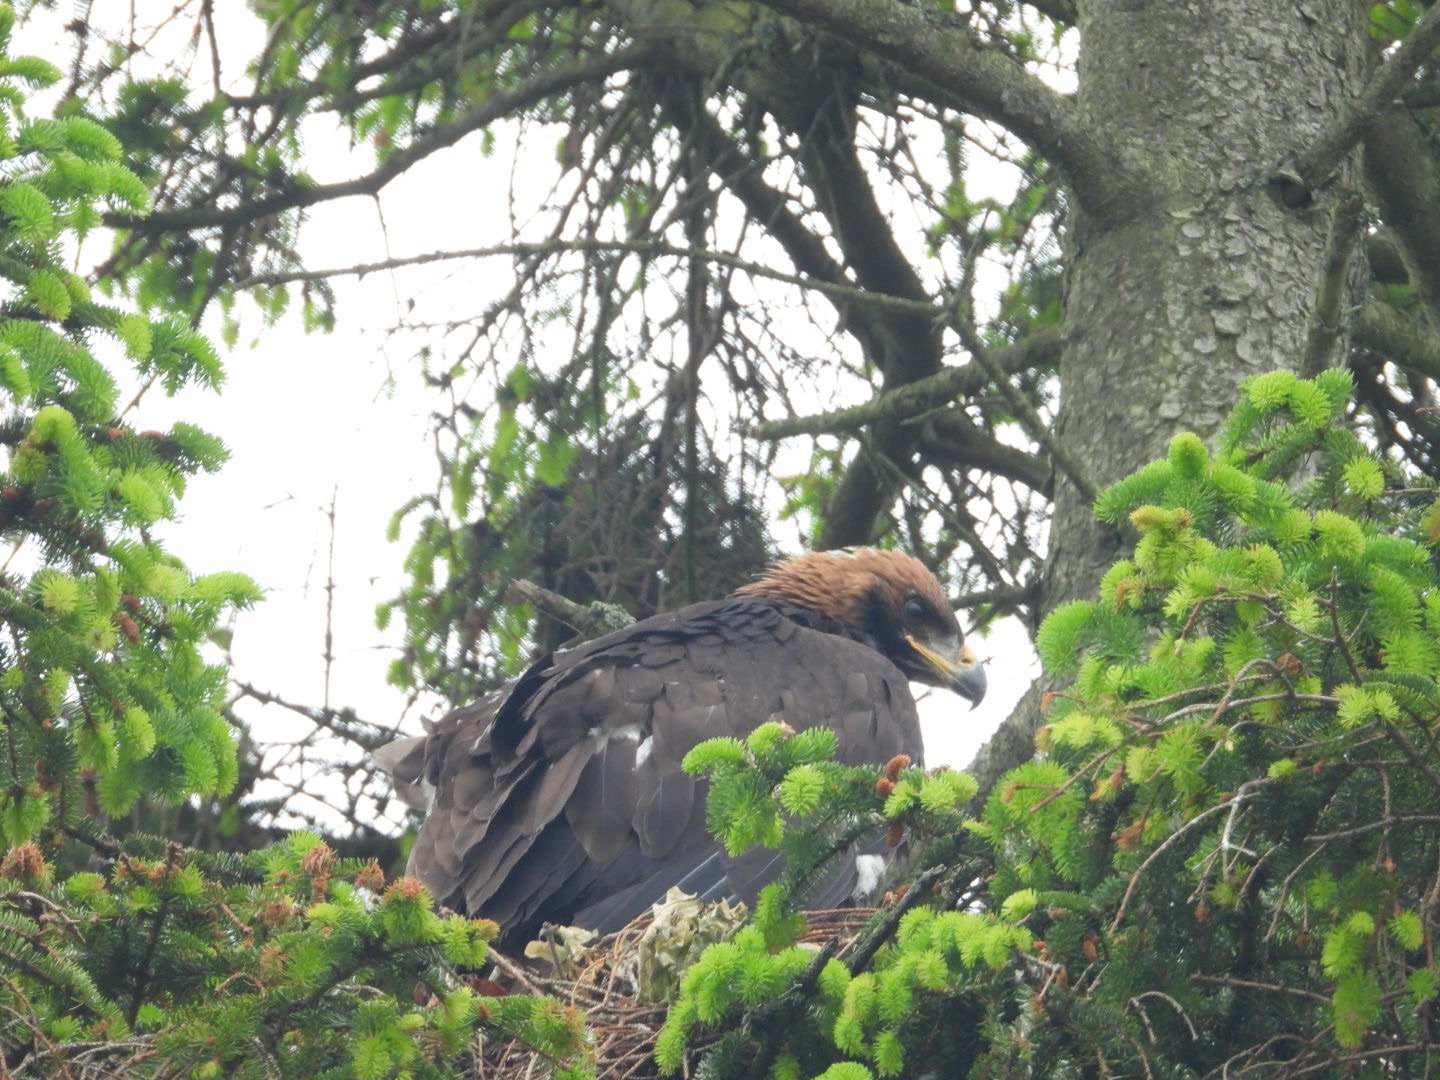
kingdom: Animalia
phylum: Chordata
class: Aves
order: Accipitriformes
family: Accipitridae
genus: Aquila
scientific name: Aquila chrysaetos
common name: Kongeørn
